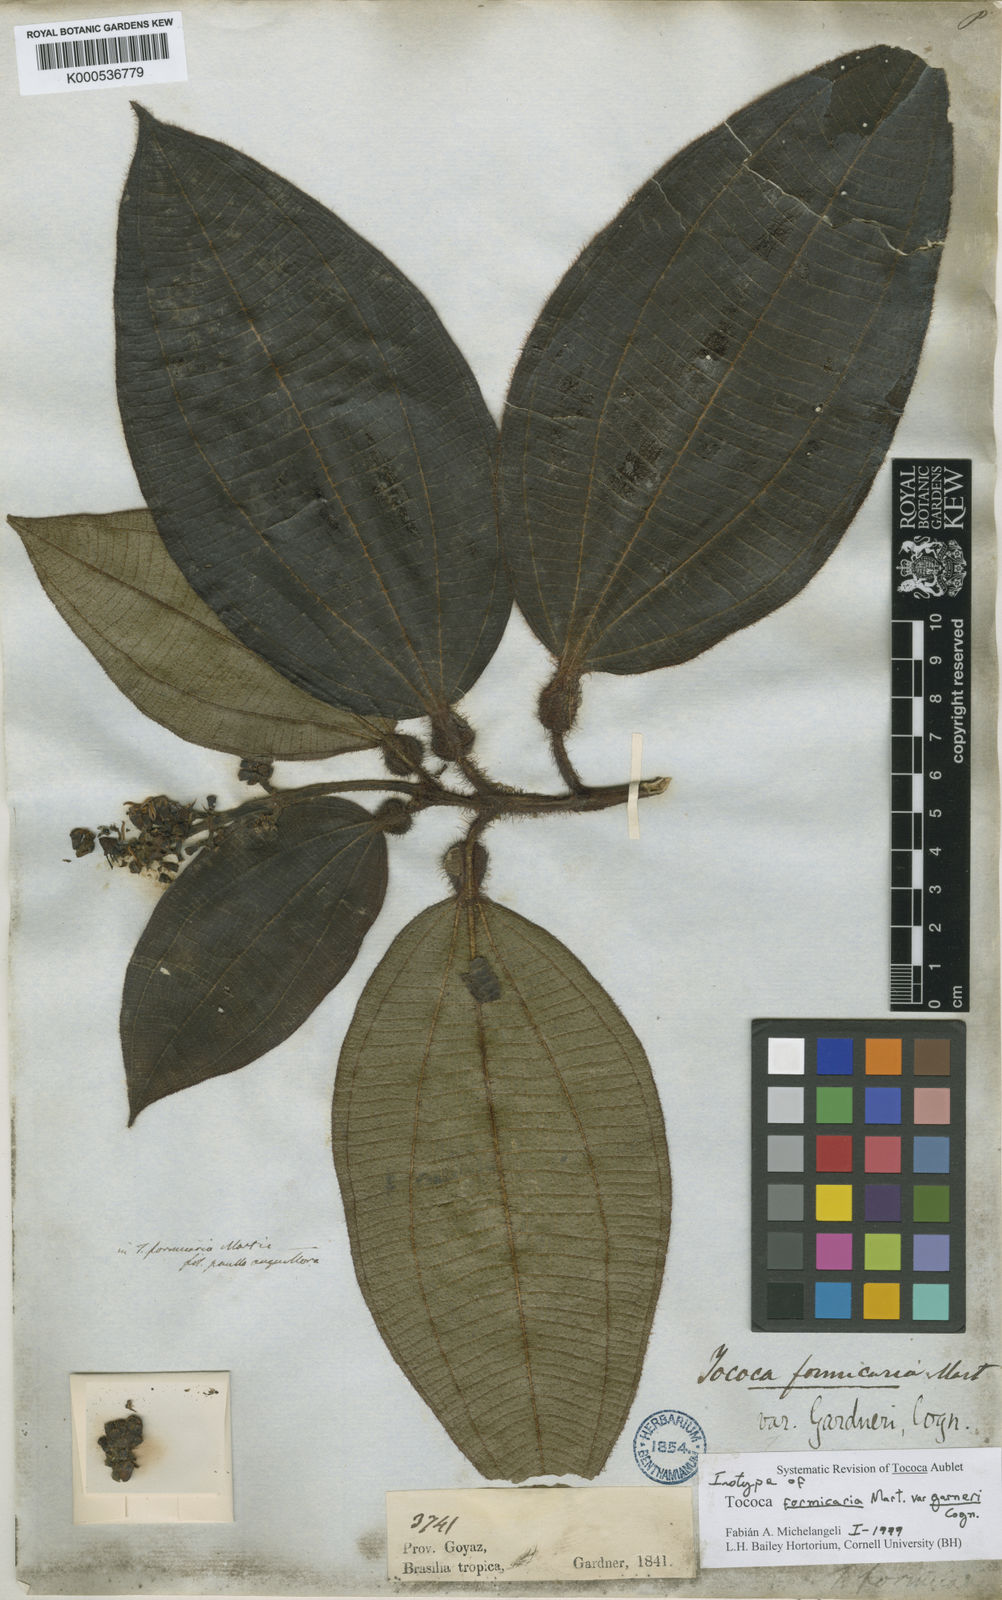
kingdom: Plantae
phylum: Tracheophyta
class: Magnoliopsida
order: Myrtales
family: Melastomataceae
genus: Miconia
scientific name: Miconia tococa
